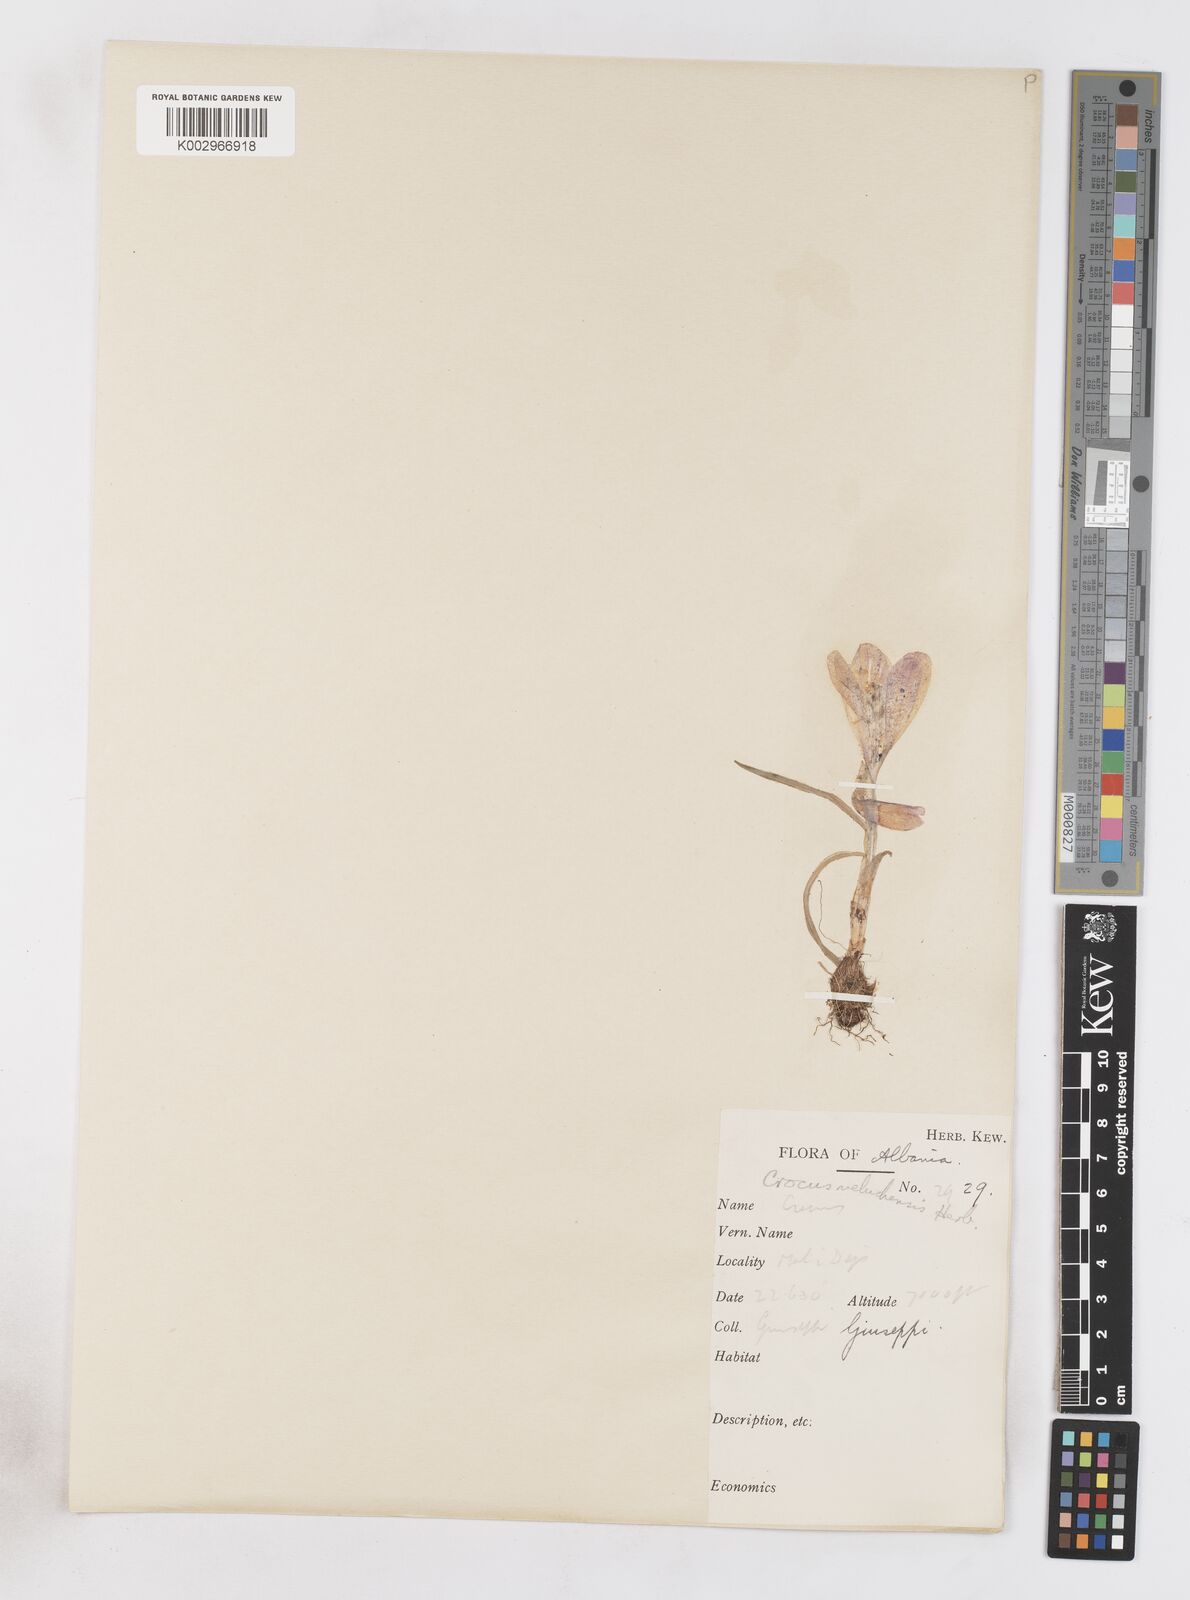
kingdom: Plantae
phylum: Tracheophyta
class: Liliopsida
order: Asparagales
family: Iridaceae
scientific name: Iridaceae
